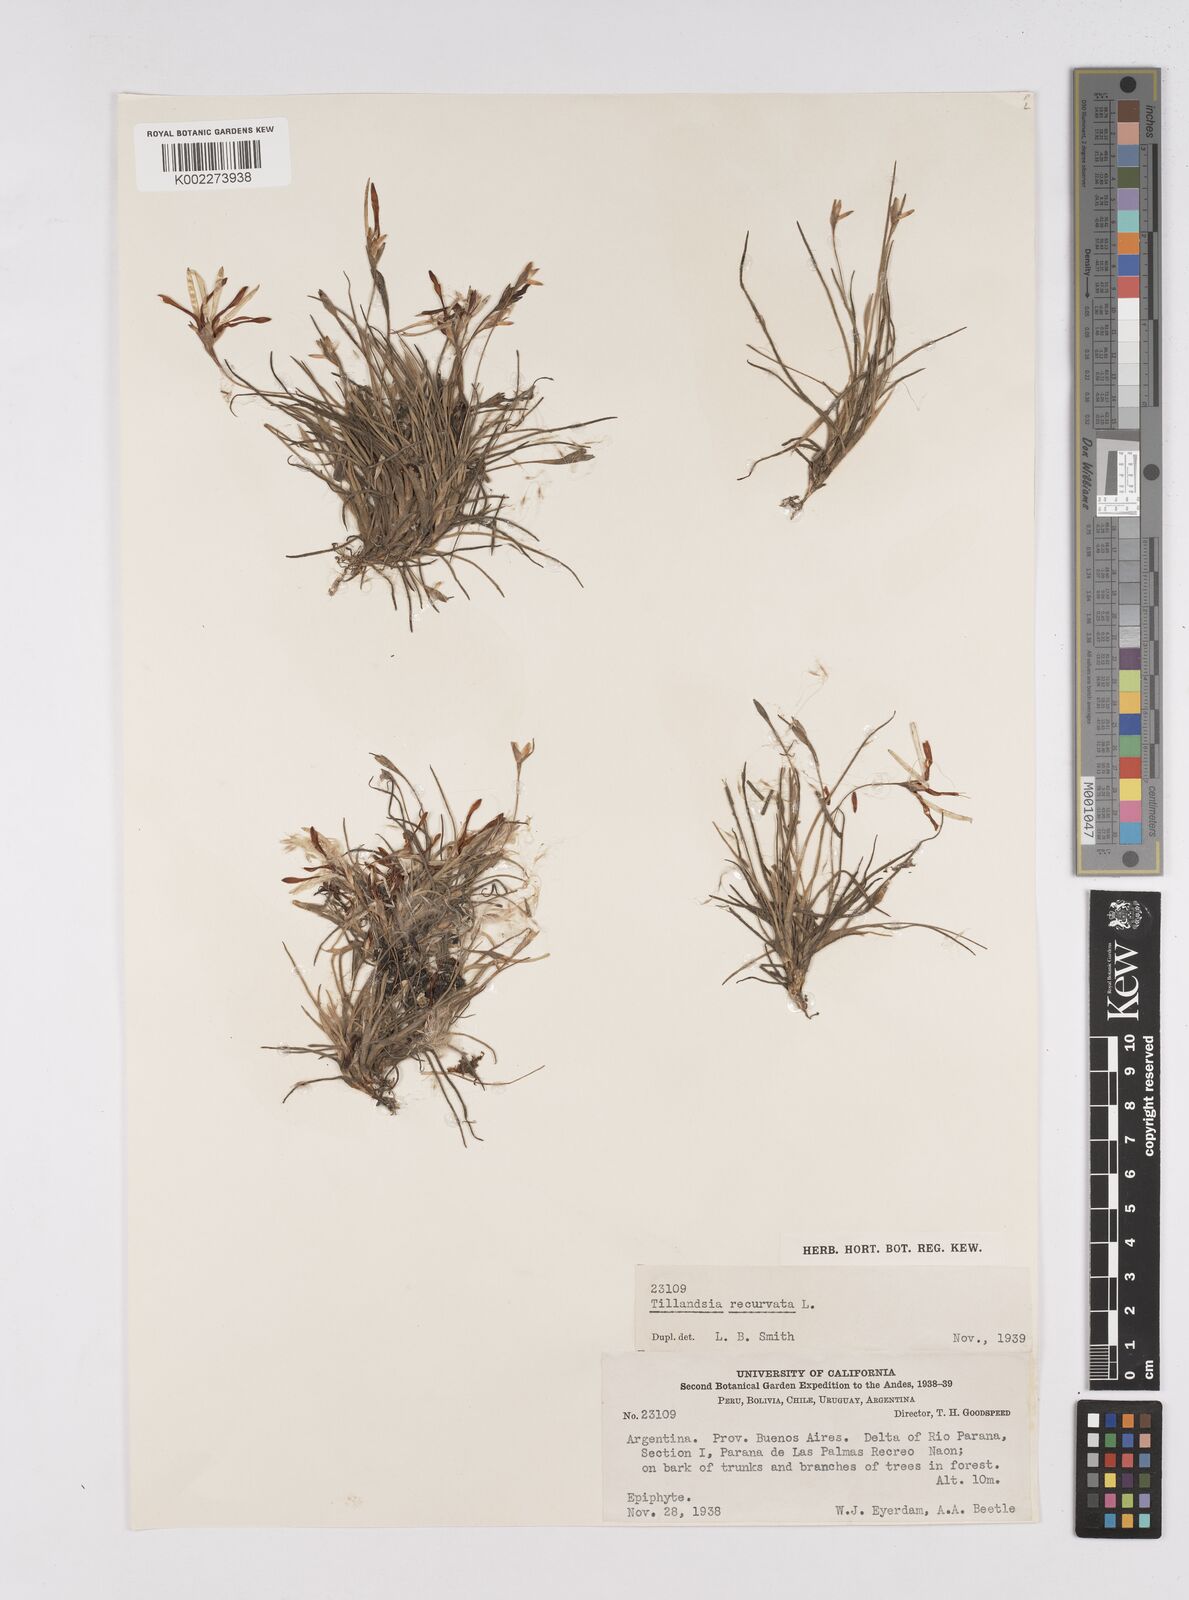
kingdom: Plantae
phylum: Tracheophyta
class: Liliopsida
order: Poales
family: Bromeliaceae
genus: Tillandsia
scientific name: Tillandsia recurvata
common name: Small ballmoss
